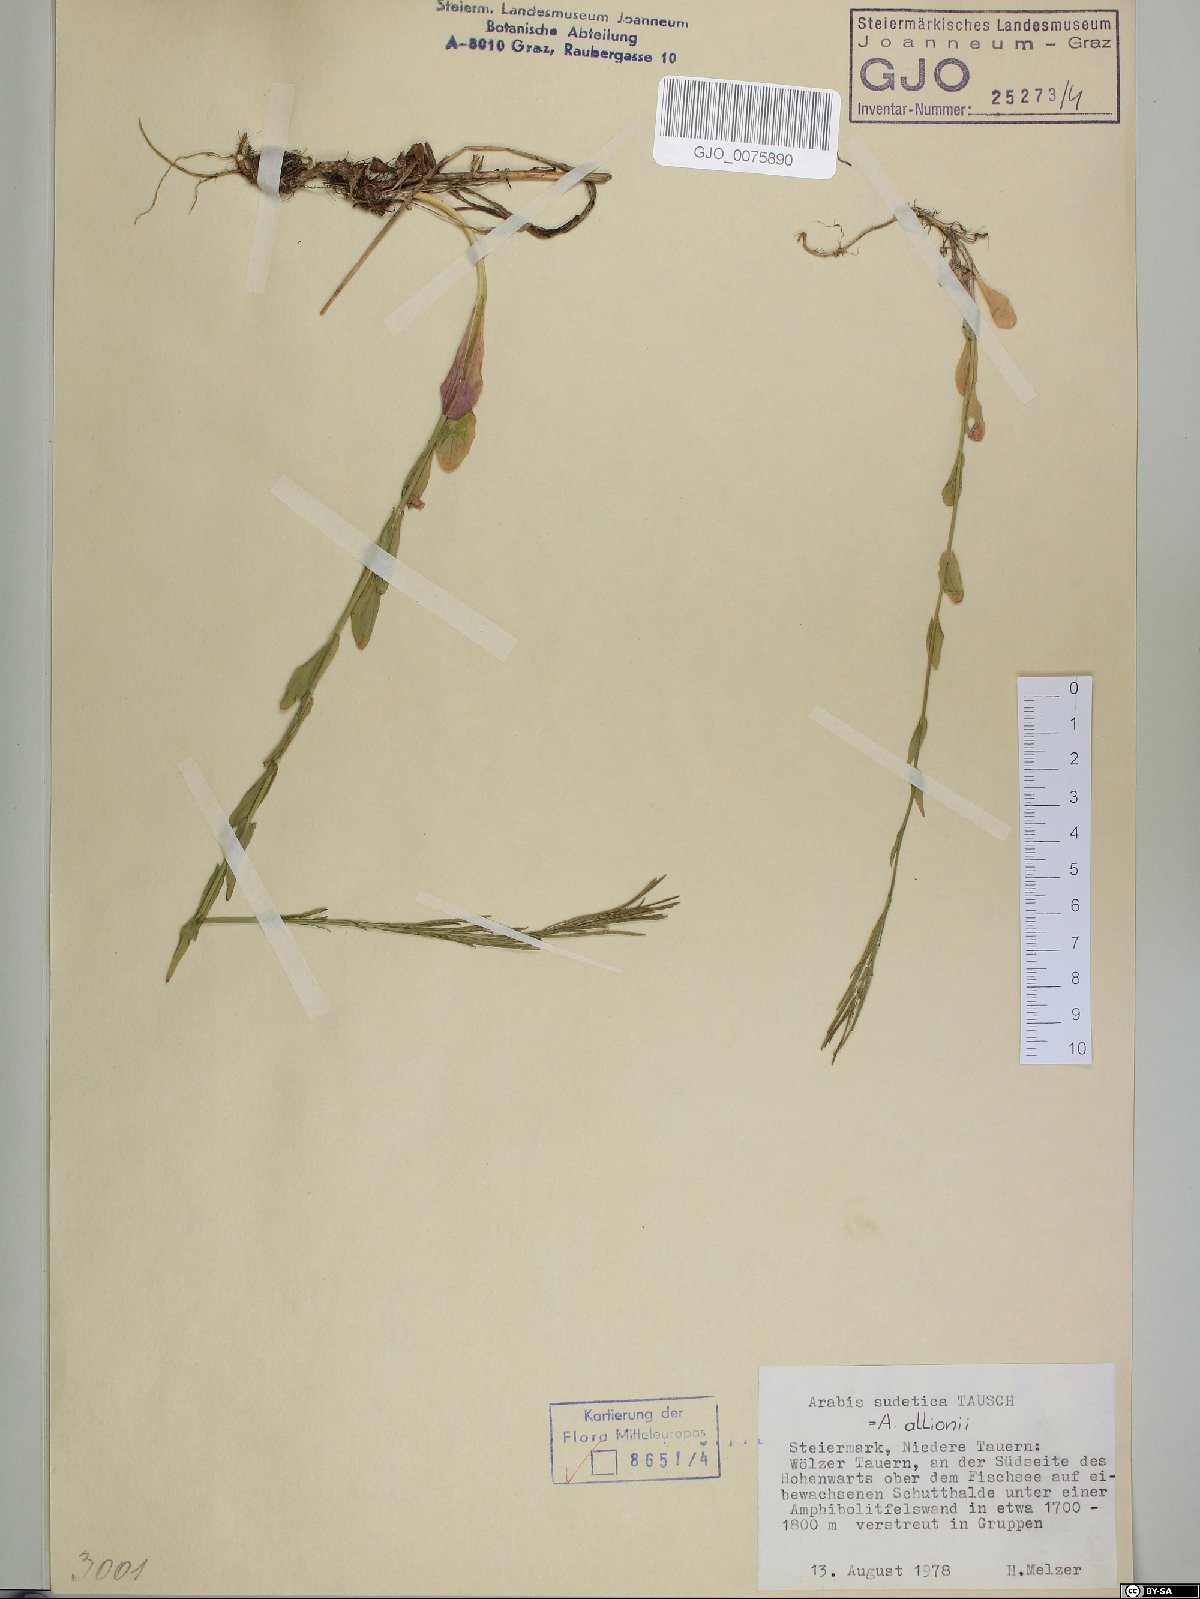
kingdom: Plantae
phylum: Tracheophyta
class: Magnoliopsida
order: Brassicales
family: Brassicaceae
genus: Arabis
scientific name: Arabis sudetica
